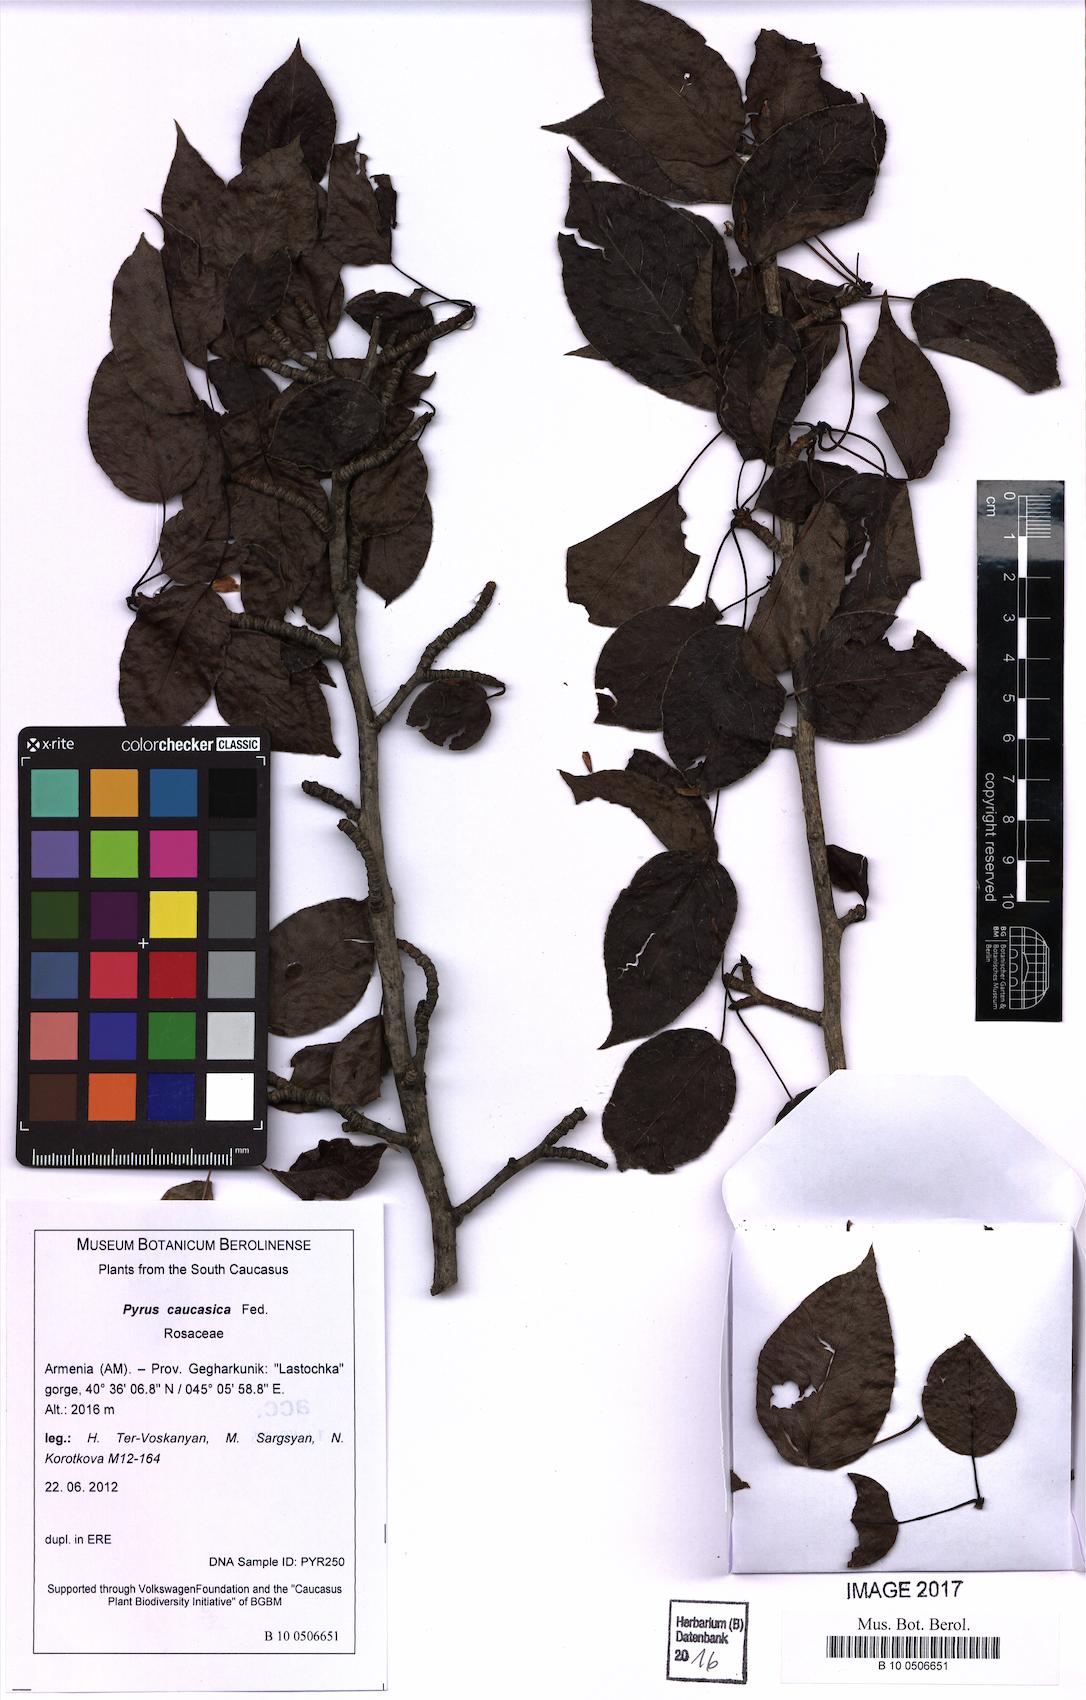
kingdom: Plantae
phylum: Tracheophyta
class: Magnoliopsida
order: Rosales
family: Rosaceae
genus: Pyrus
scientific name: Pyrus communis
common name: Pear
